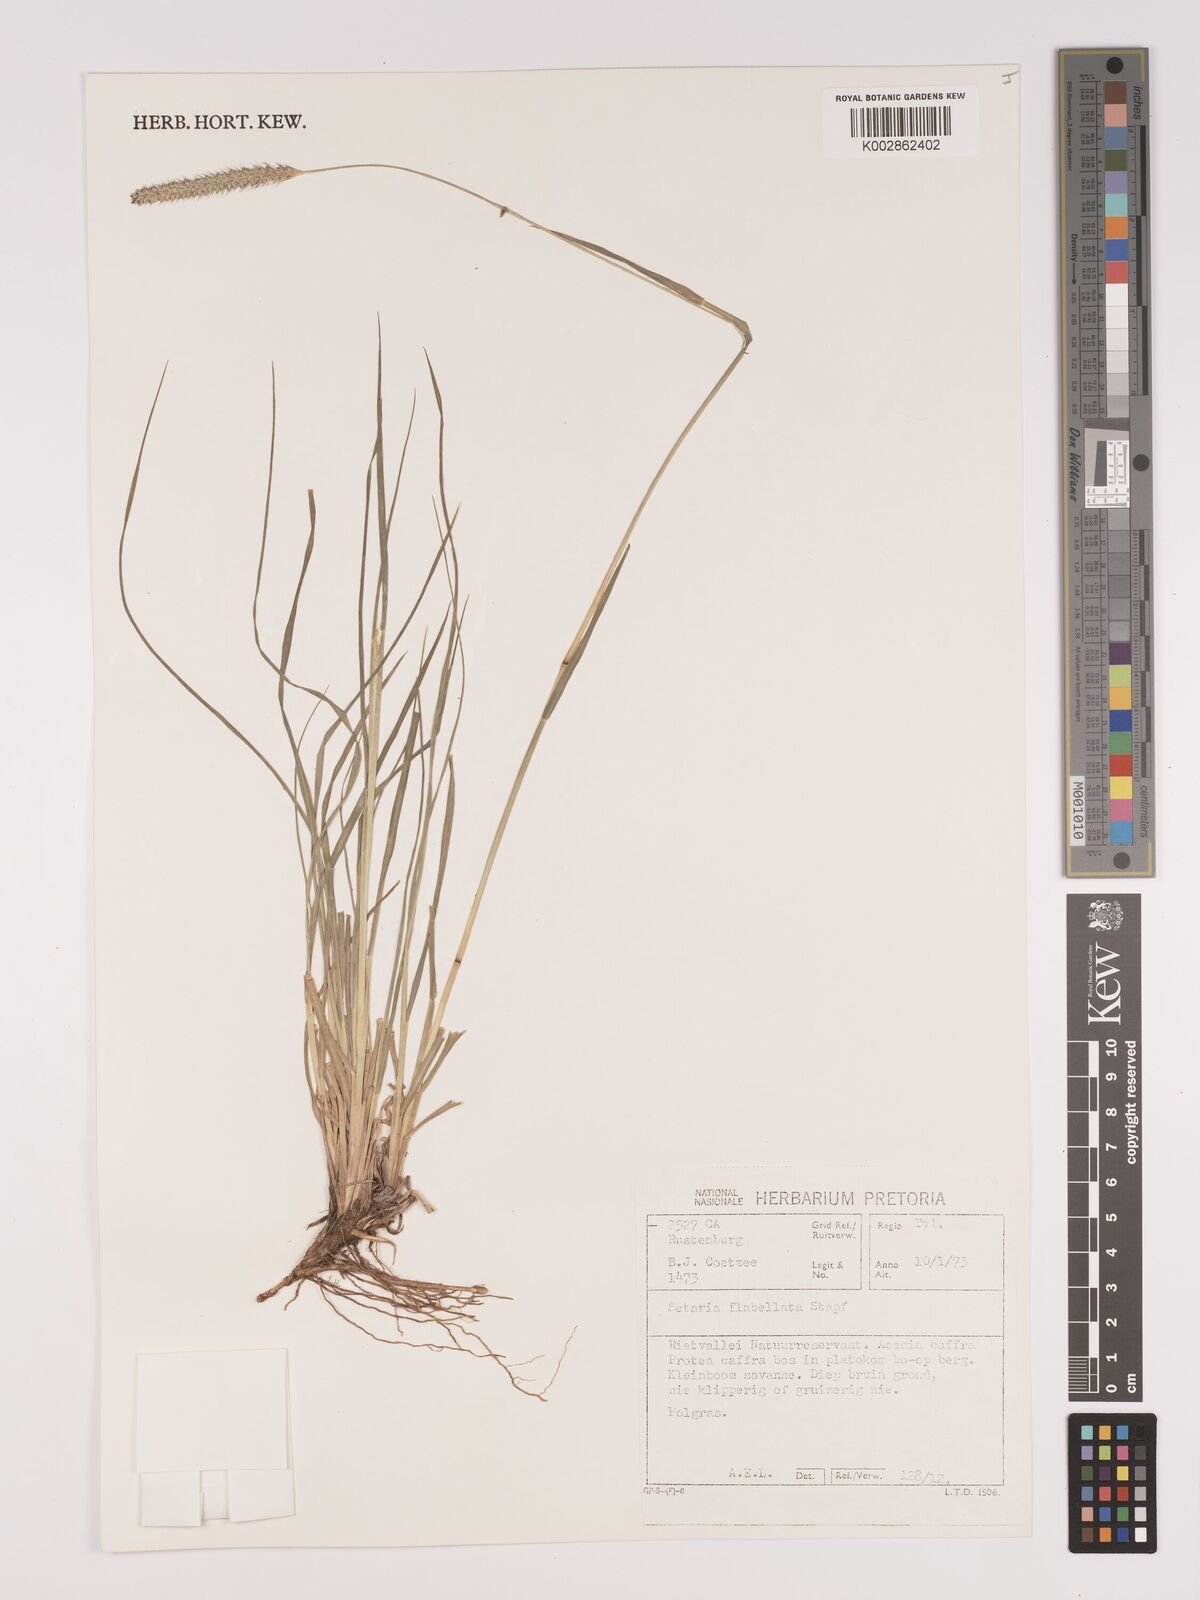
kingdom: Plantae
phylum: Tracheophyta
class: Liliopsida
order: Poales
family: Poaceae
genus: Setaria
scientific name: Setaria sphacelata
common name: African bristlegrass
